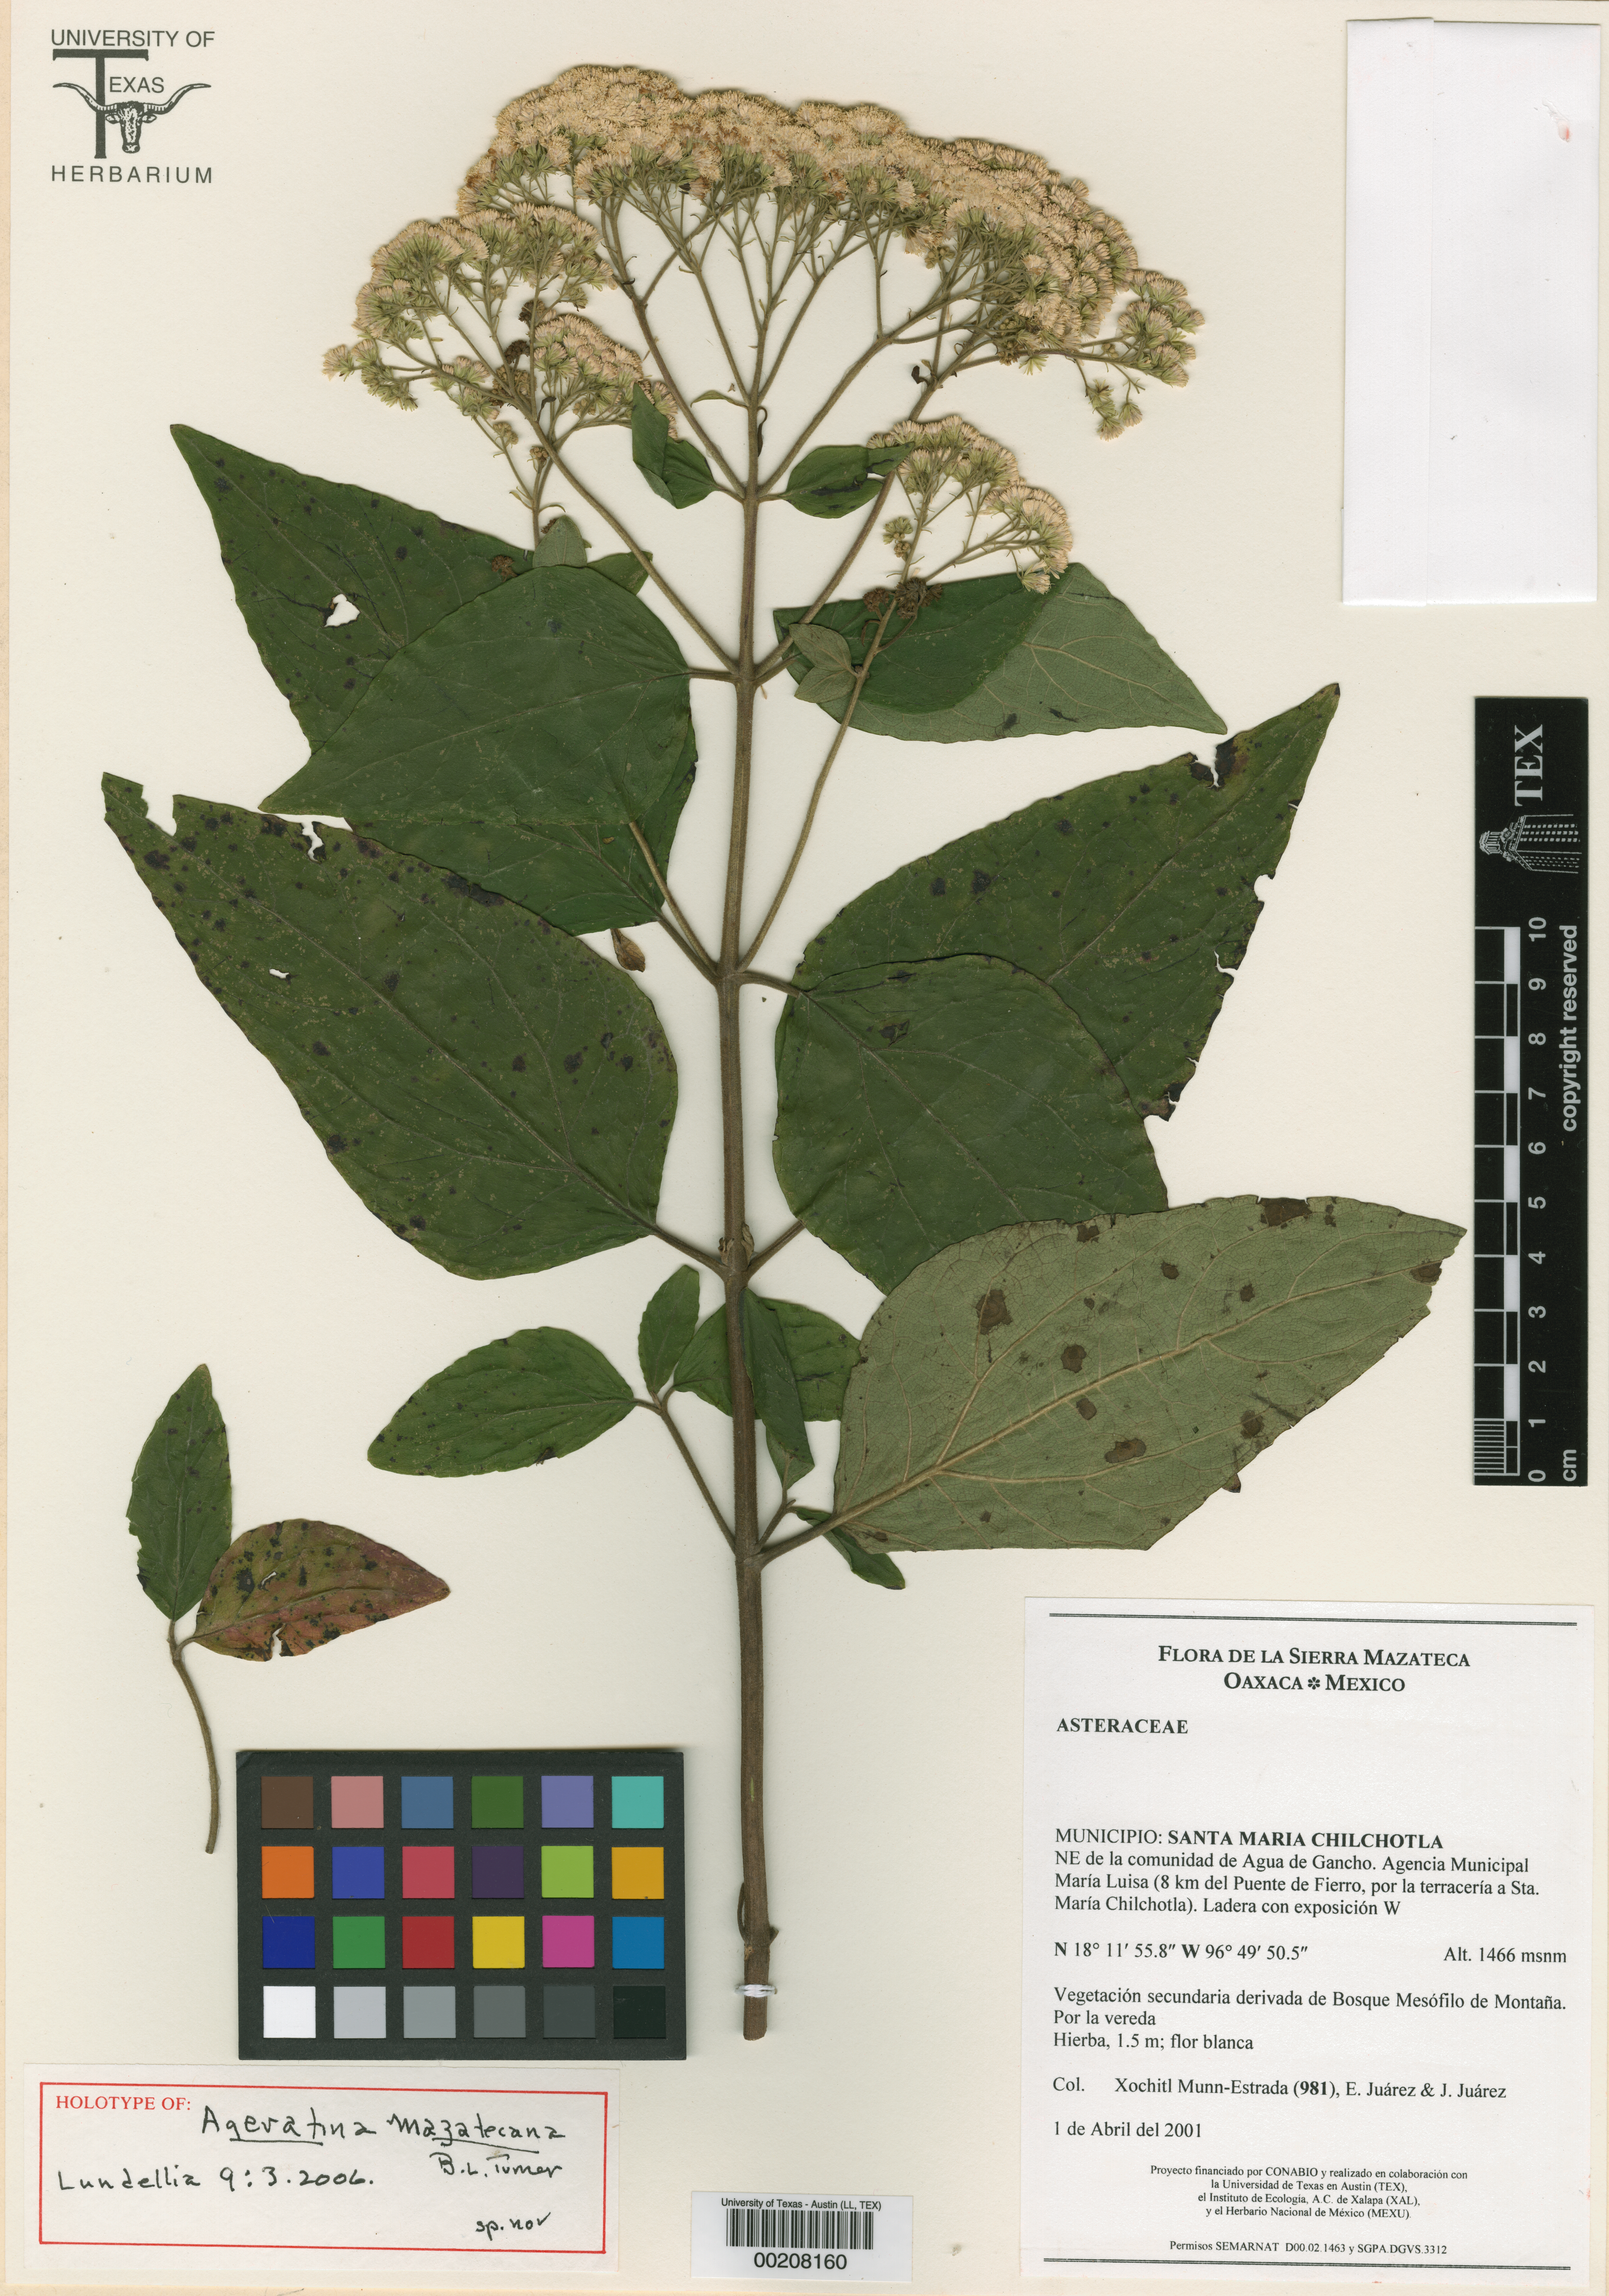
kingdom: Plantae
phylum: Tracheophyta
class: Magnoliopsida
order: Asterales
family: Asteraceae
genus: Ageratina
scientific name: Ageratina mazatecana
